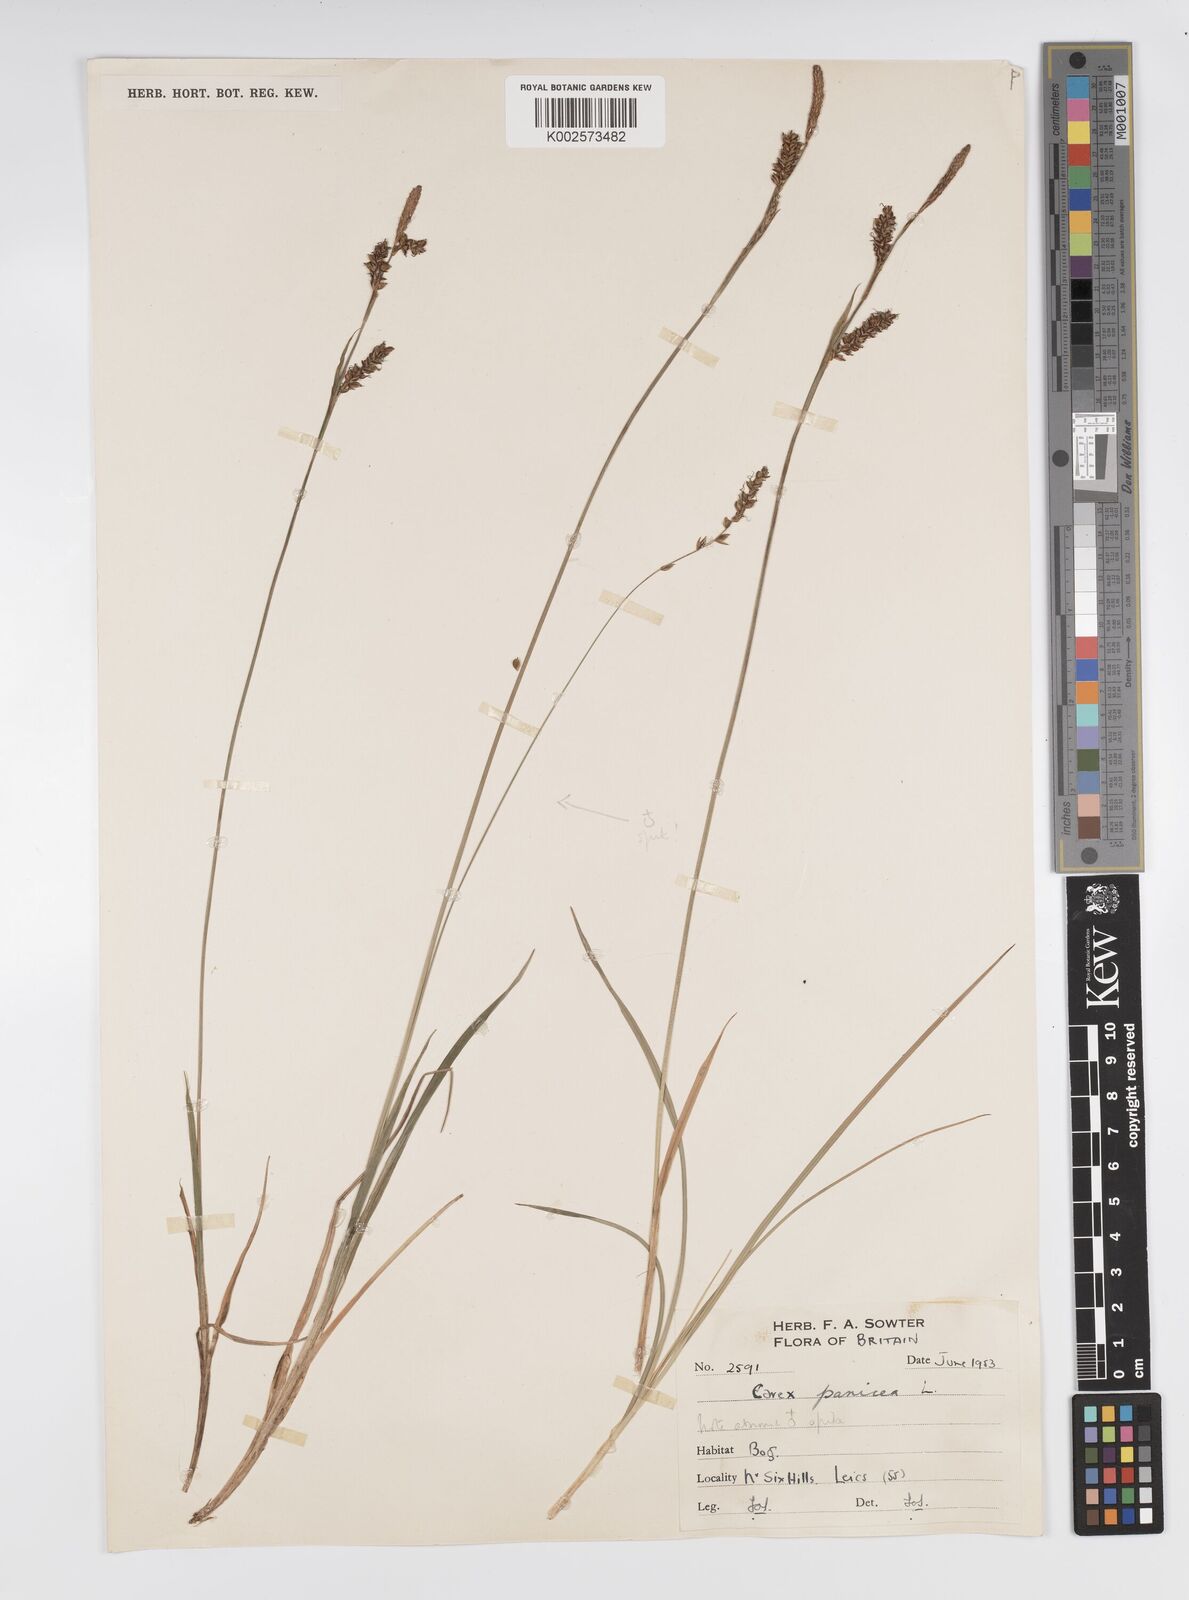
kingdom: Plantae
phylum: Tracheophyta
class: Liliopsida
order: Poales
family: Cyperaceae
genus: Carex
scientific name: Carex panicea
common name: Carnation sedge
